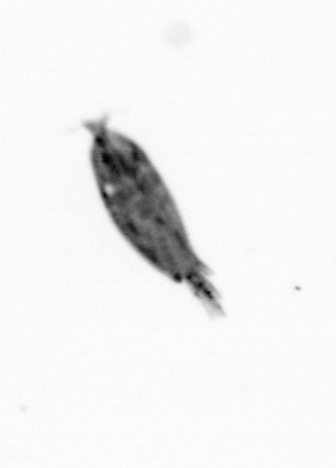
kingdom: Animalia
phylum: Arthropoda
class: Maxillopoda
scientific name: Maxillopoda
